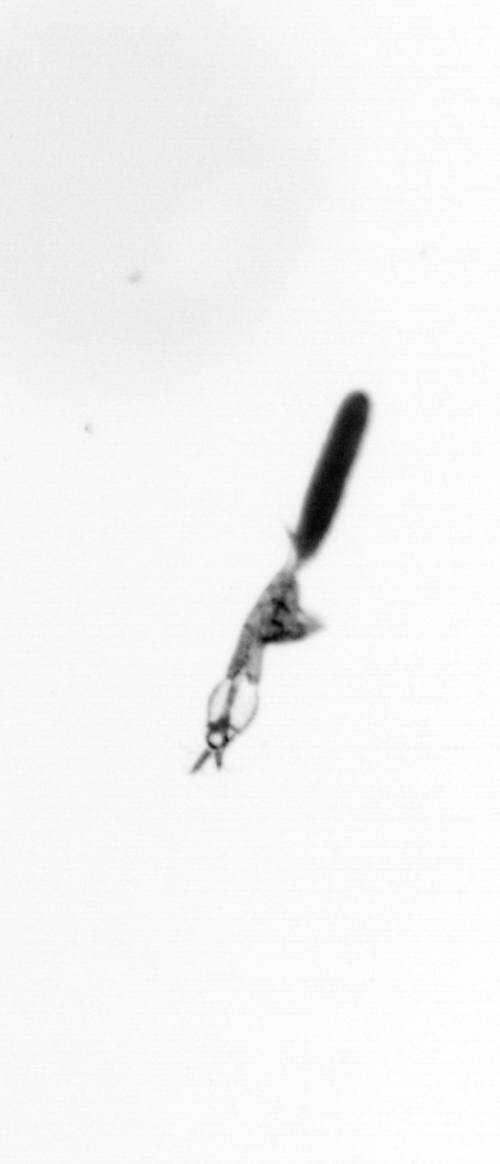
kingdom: Animalia
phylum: Arthropoda
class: Copepoda
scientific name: Copepoda
